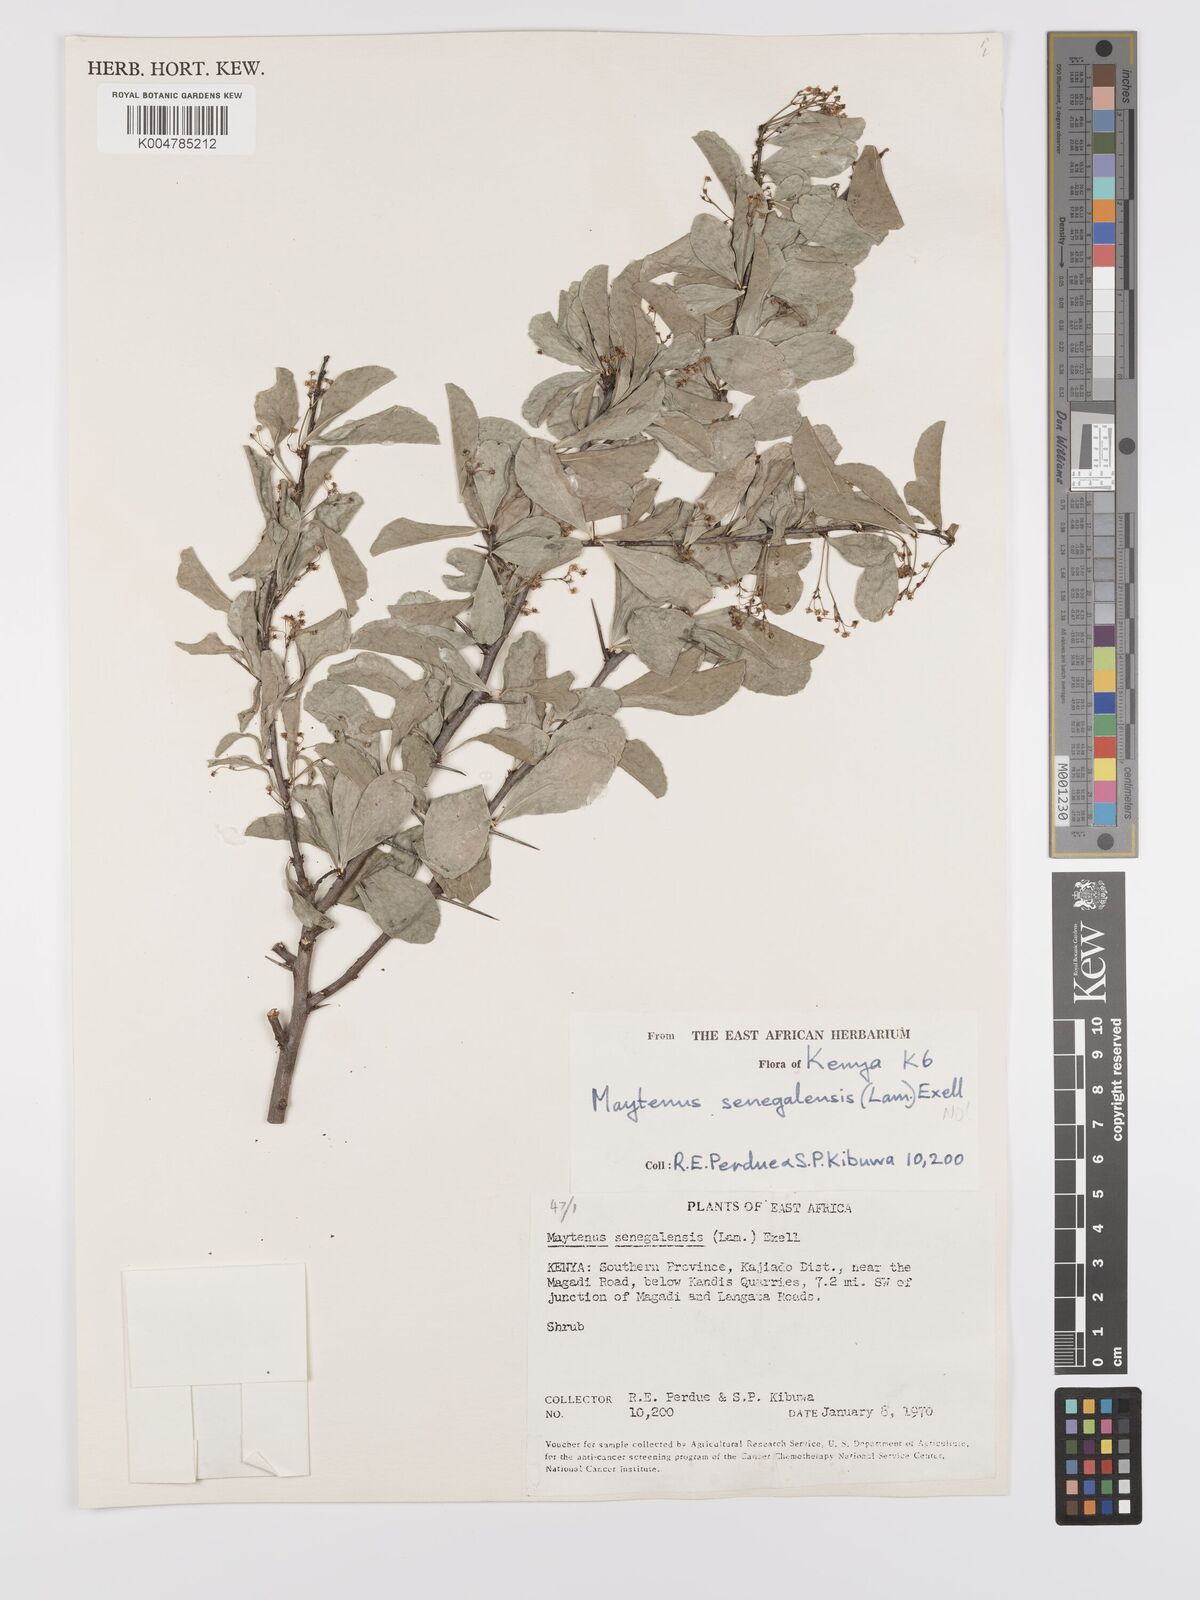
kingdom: Plantae
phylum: Tracheophyta
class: Magnoliopsida
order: Celastrales
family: Celastraceae
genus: Gymnosporia
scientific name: Gymnosporia heterophylla
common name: Angle-stem spikethorn
